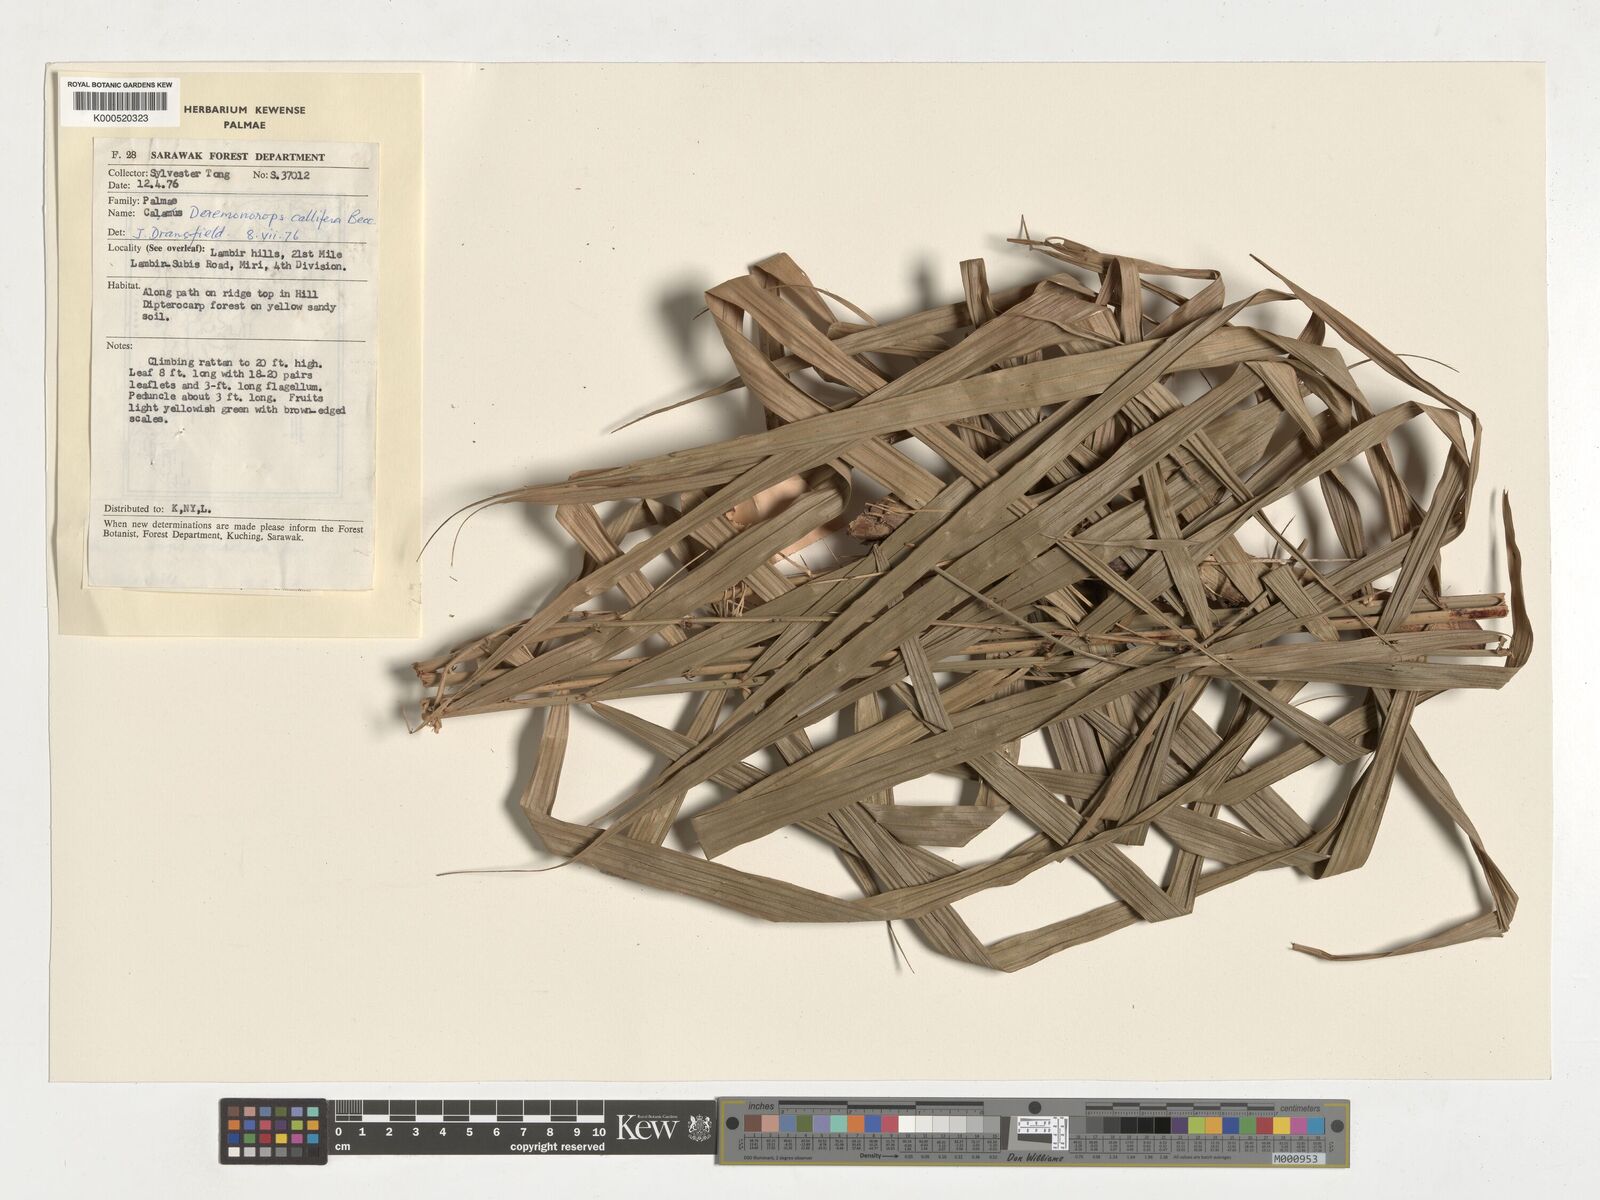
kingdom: Plantae
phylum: Tracheophyta
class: Liliopsida
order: Arecales
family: Arecaceae
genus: Calamus
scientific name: Calamus geniculatus
